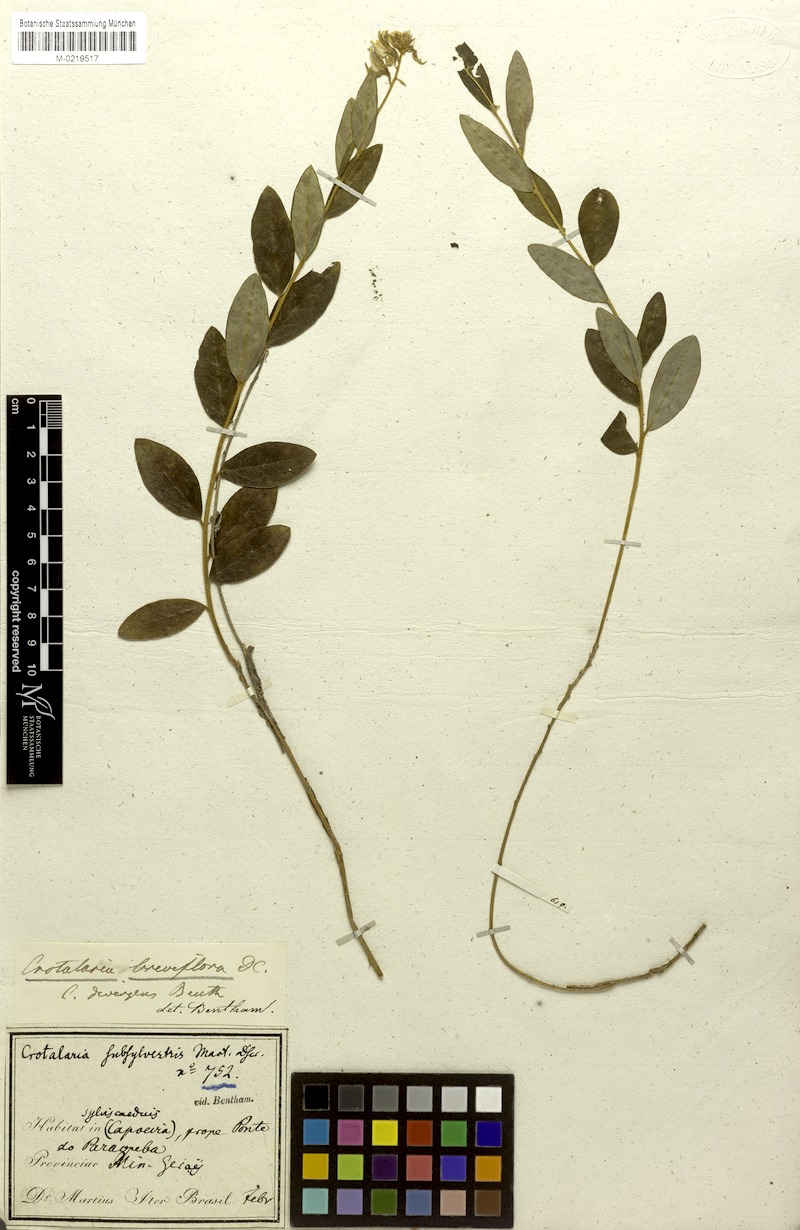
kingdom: Plantae
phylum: Tracheophyta
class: Magnoliopsida
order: Fabales
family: Fabaceae
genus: Crotalaria
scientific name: Crotalaria breviflora
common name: Short-flower crotalaria
